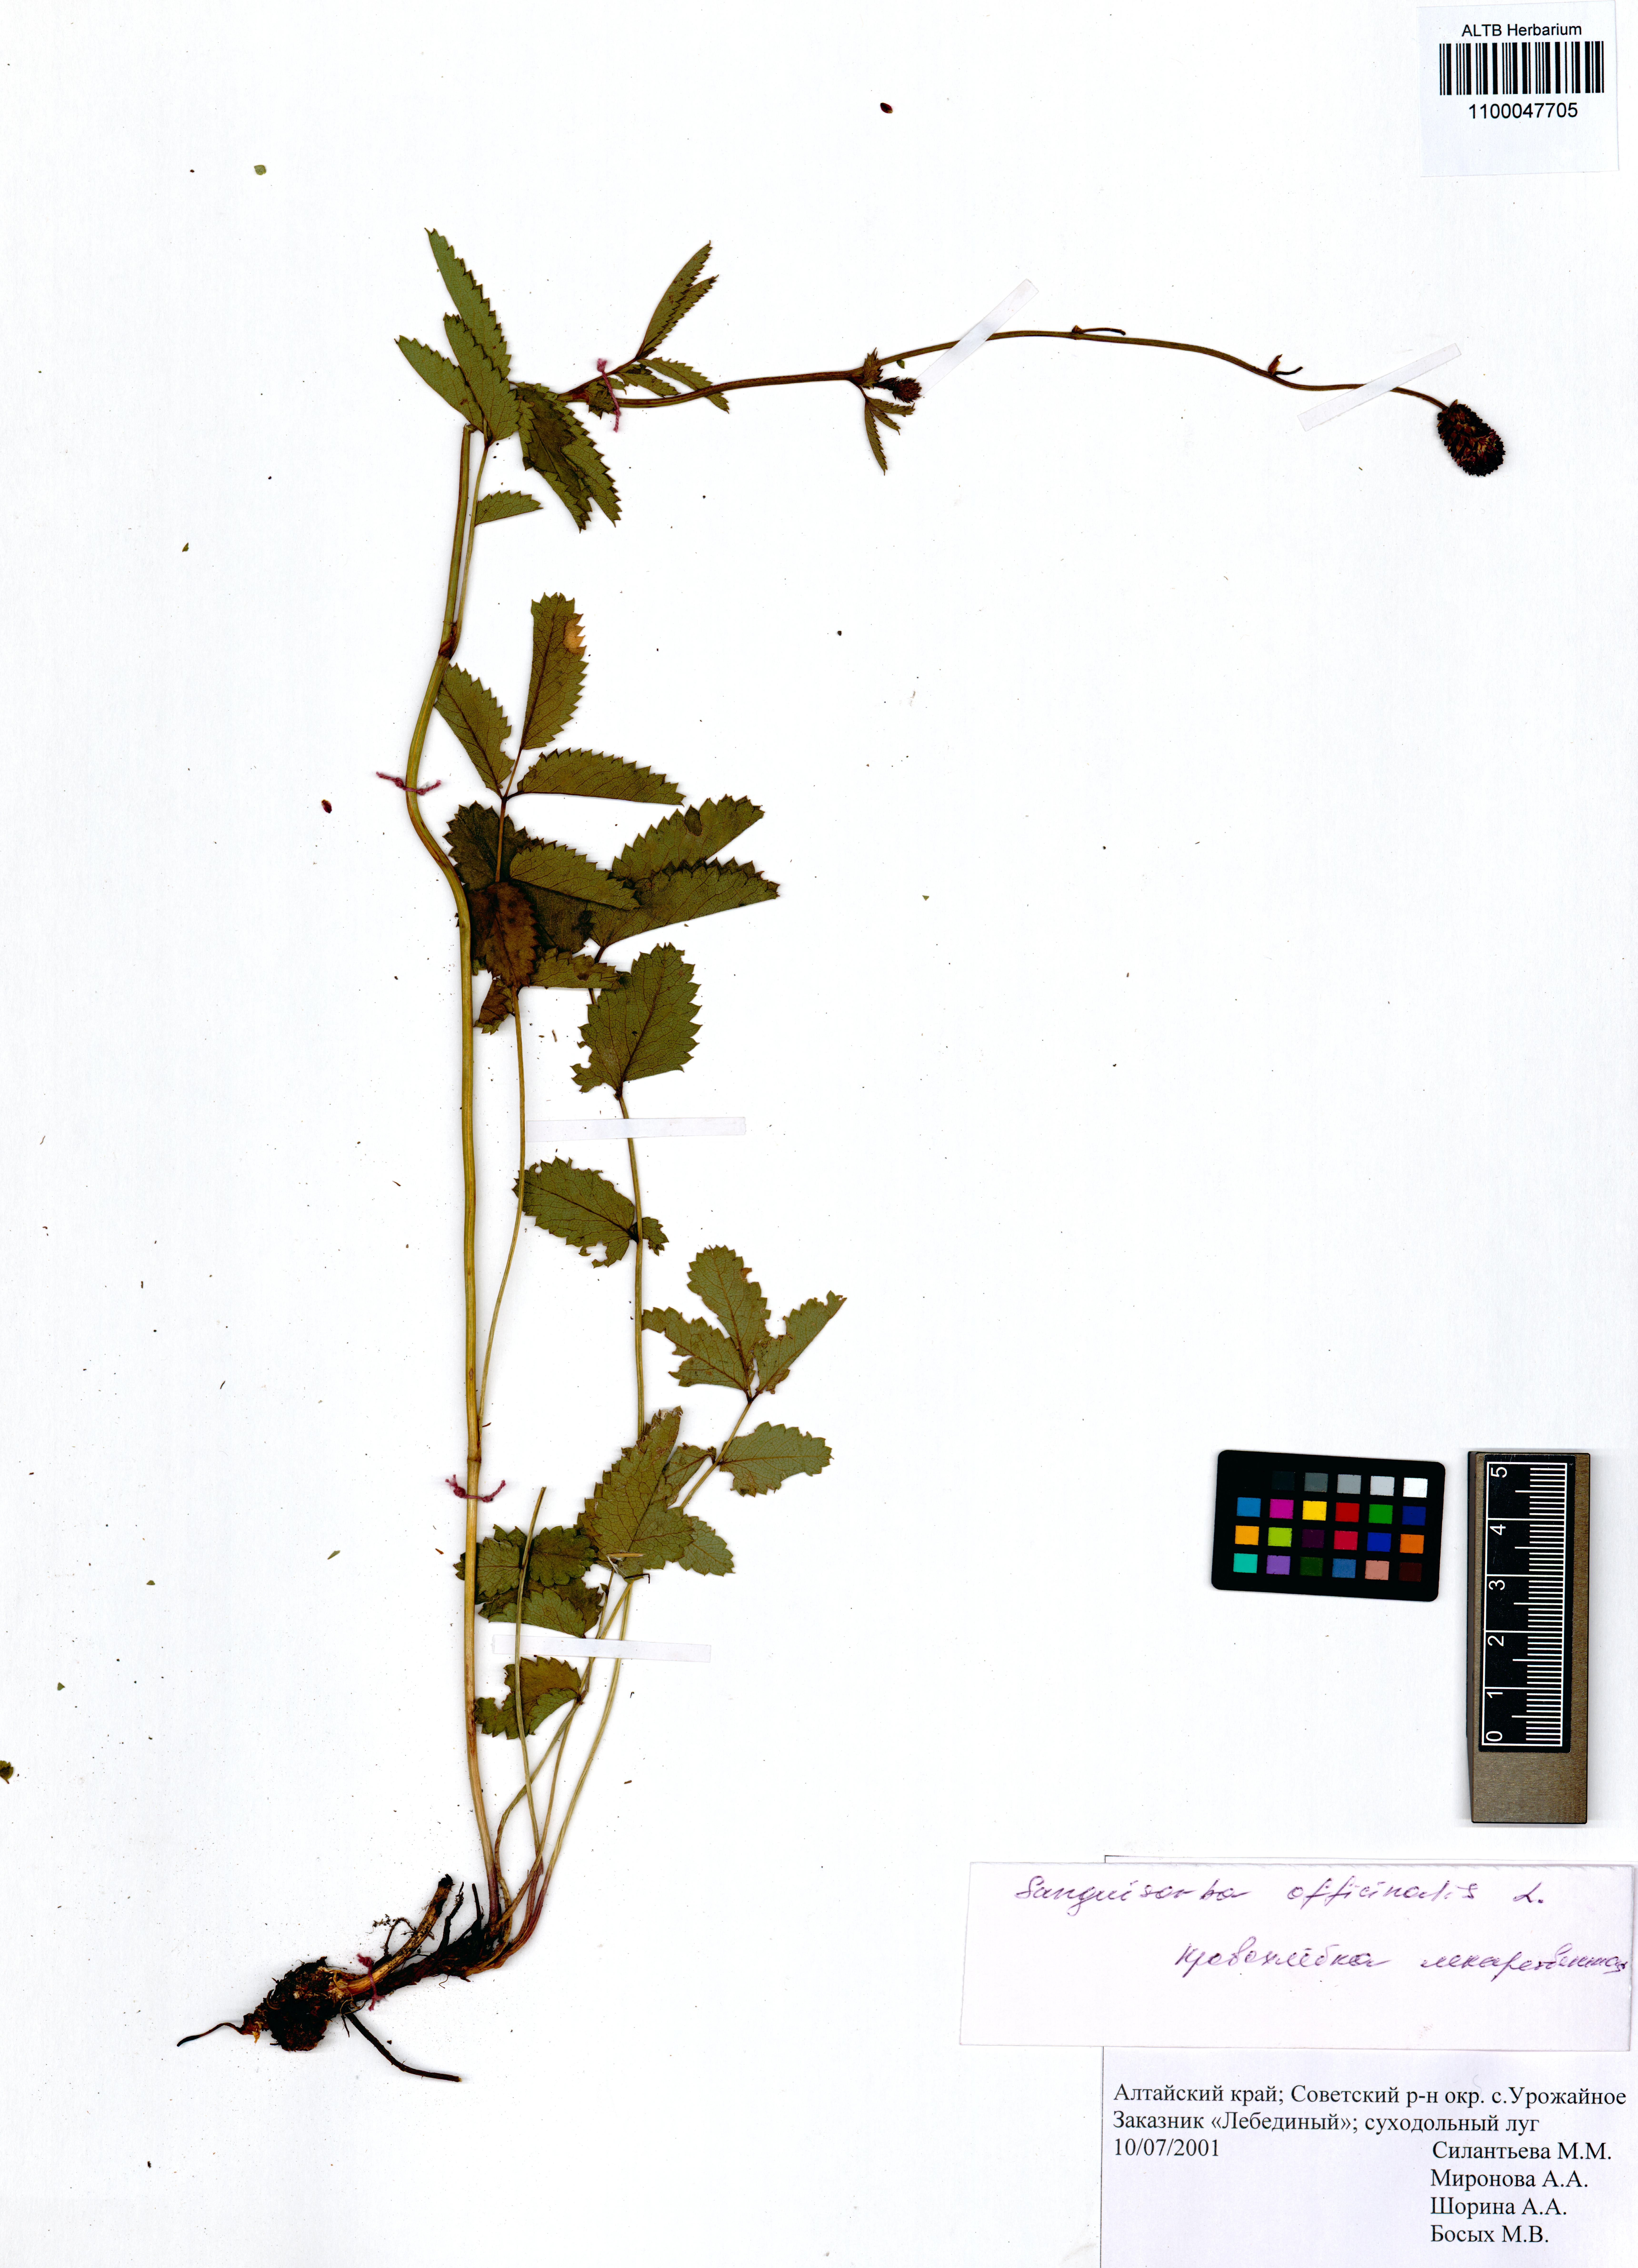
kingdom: Plantae
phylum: Tracheophyta
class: Magnoliopsida
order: Rosales
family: Rosaceae
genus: Sanguisorba
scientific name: Sanguisorba officinalis
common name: Great burnet
